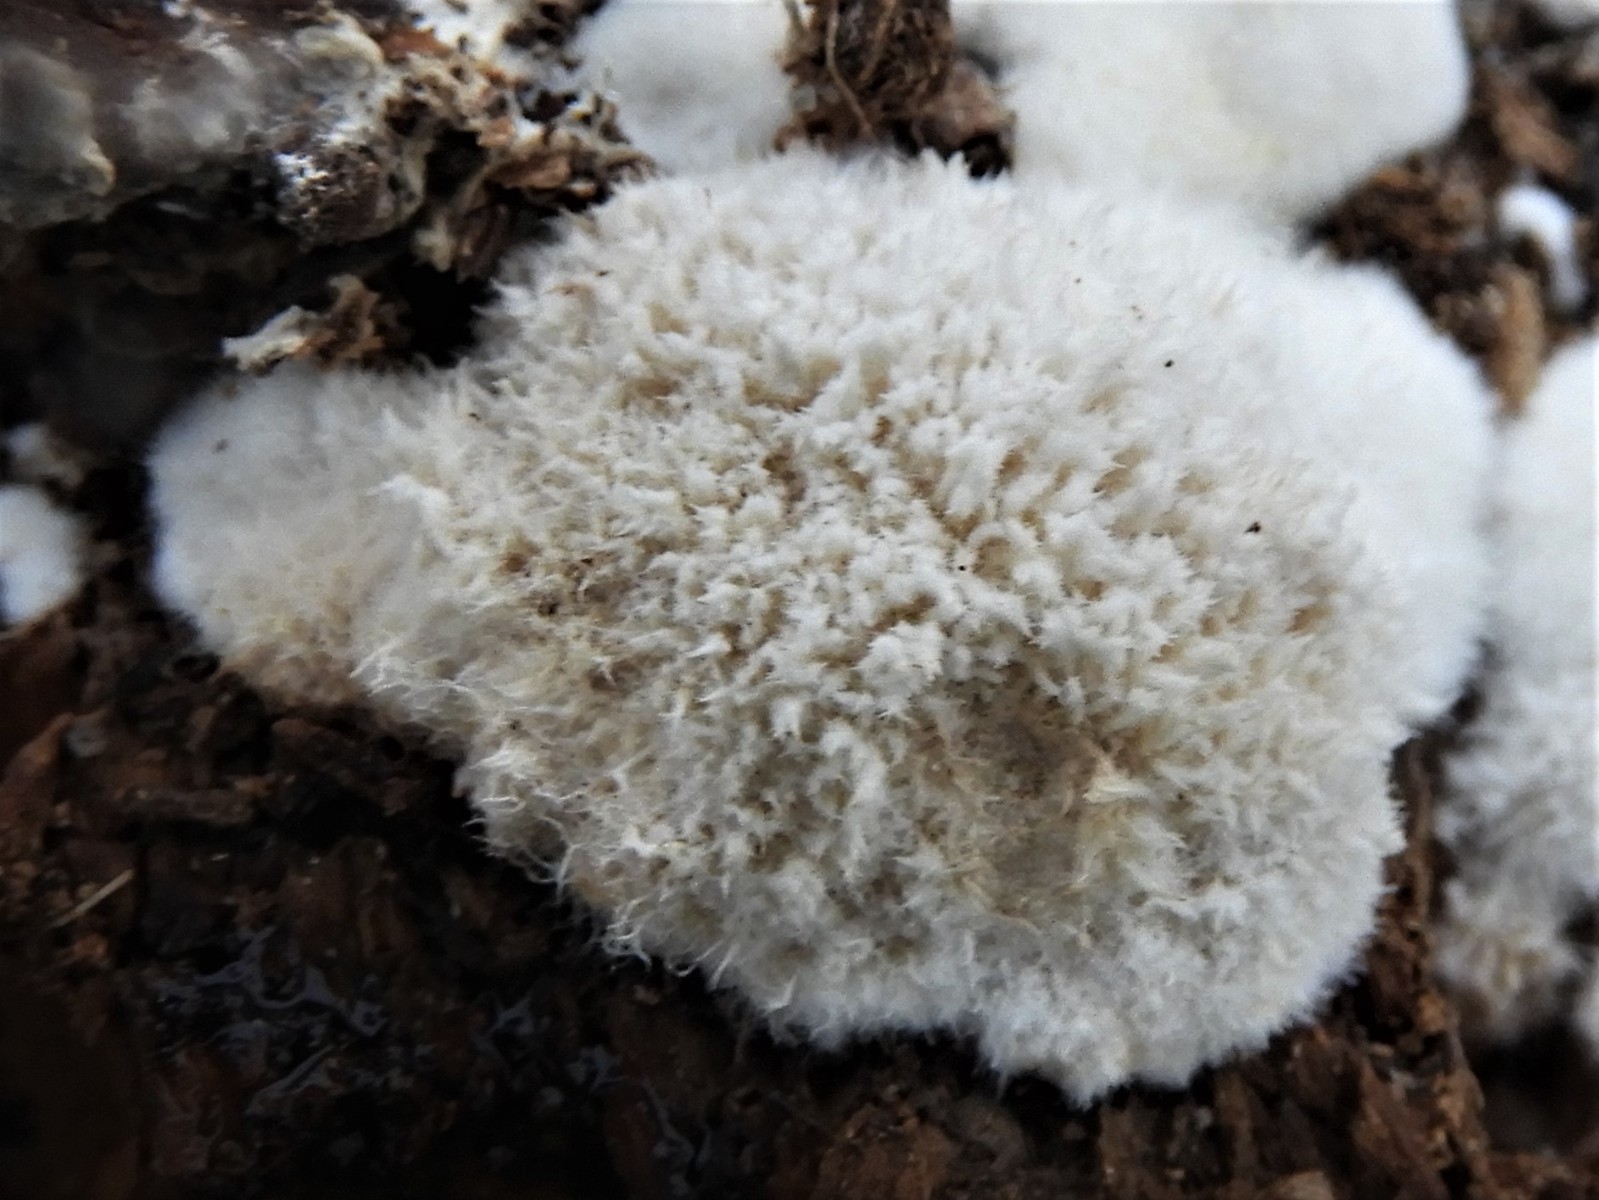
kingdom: Fungi
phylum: Basidiomycota
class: Agaricomycetes
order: Polyporales
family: Dacryobolaceae
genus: Postia
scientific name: Postia ptychogaster
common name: støvende kødporesvamp
